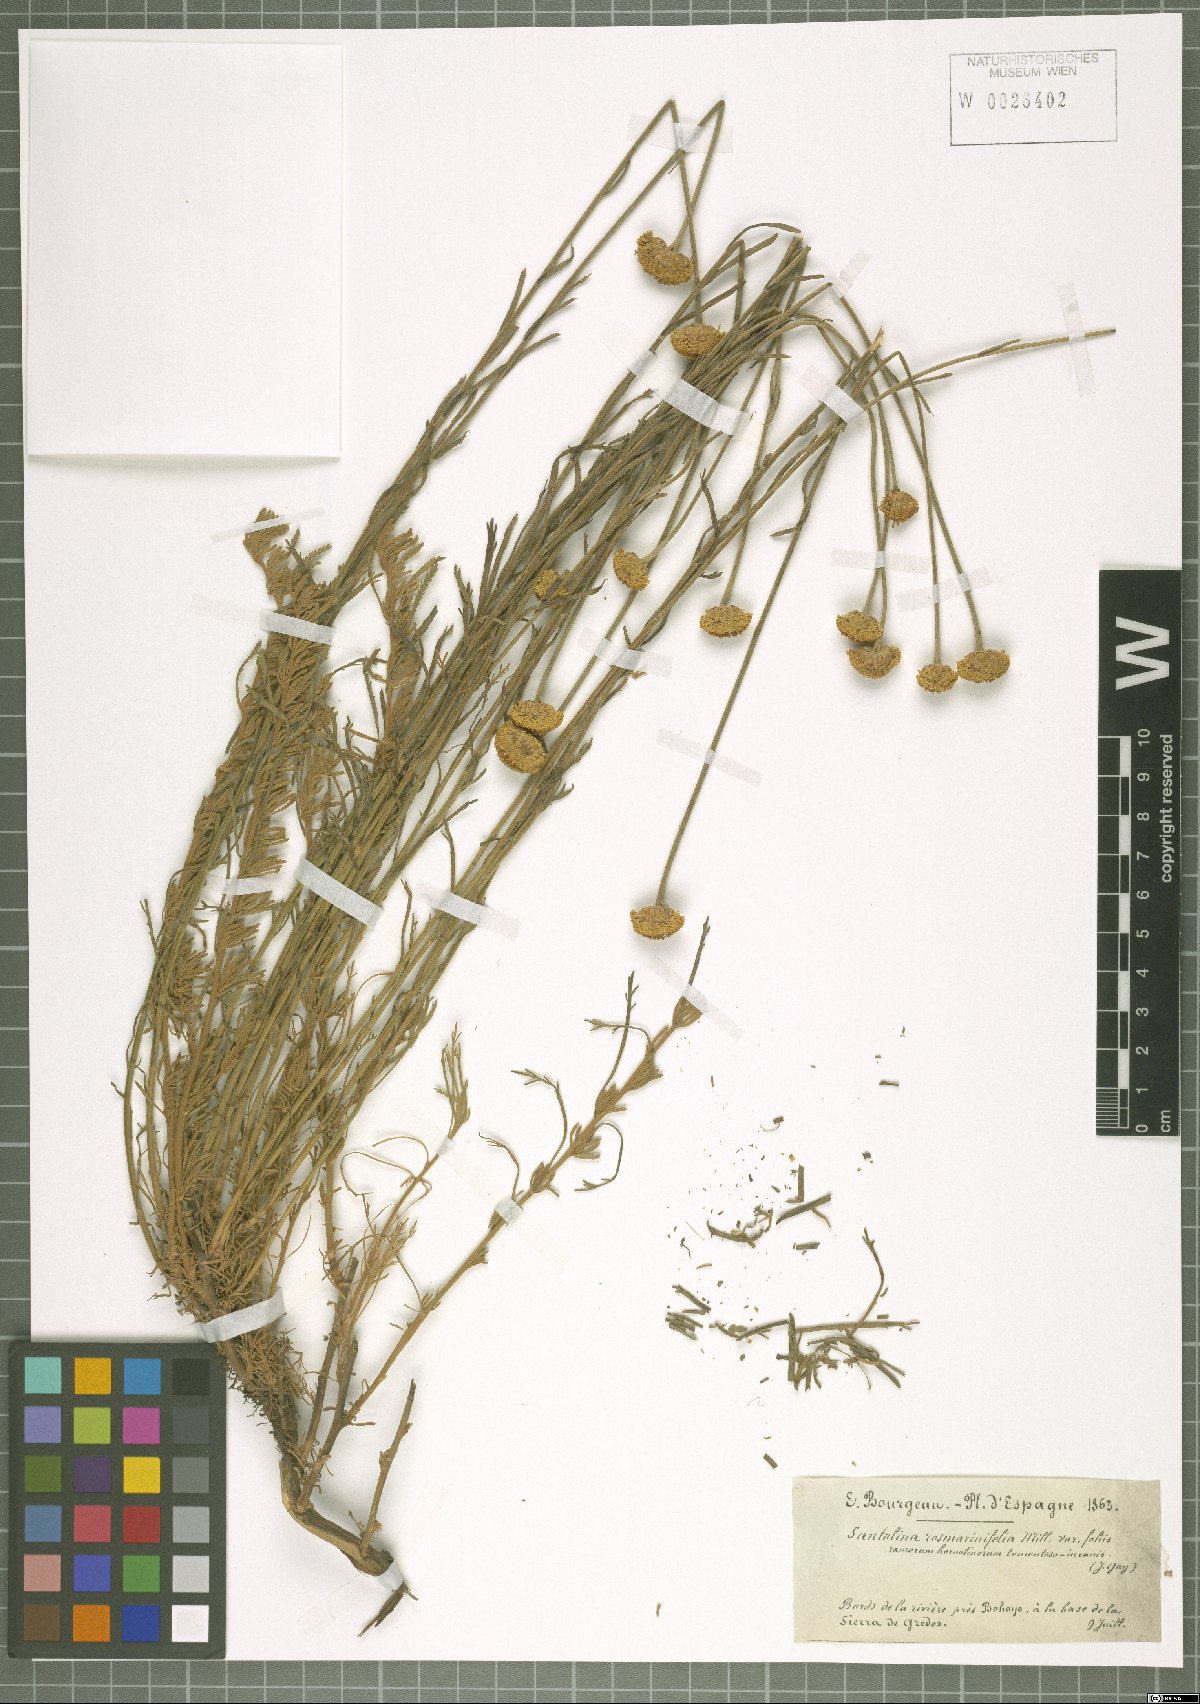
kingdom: Plantae
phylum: Tracheophyta
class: Magnoliopsida
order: Asterales
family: Asteraceae
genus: Santolina
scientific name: Santolina rosmarinifolia
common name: Holy-flax
